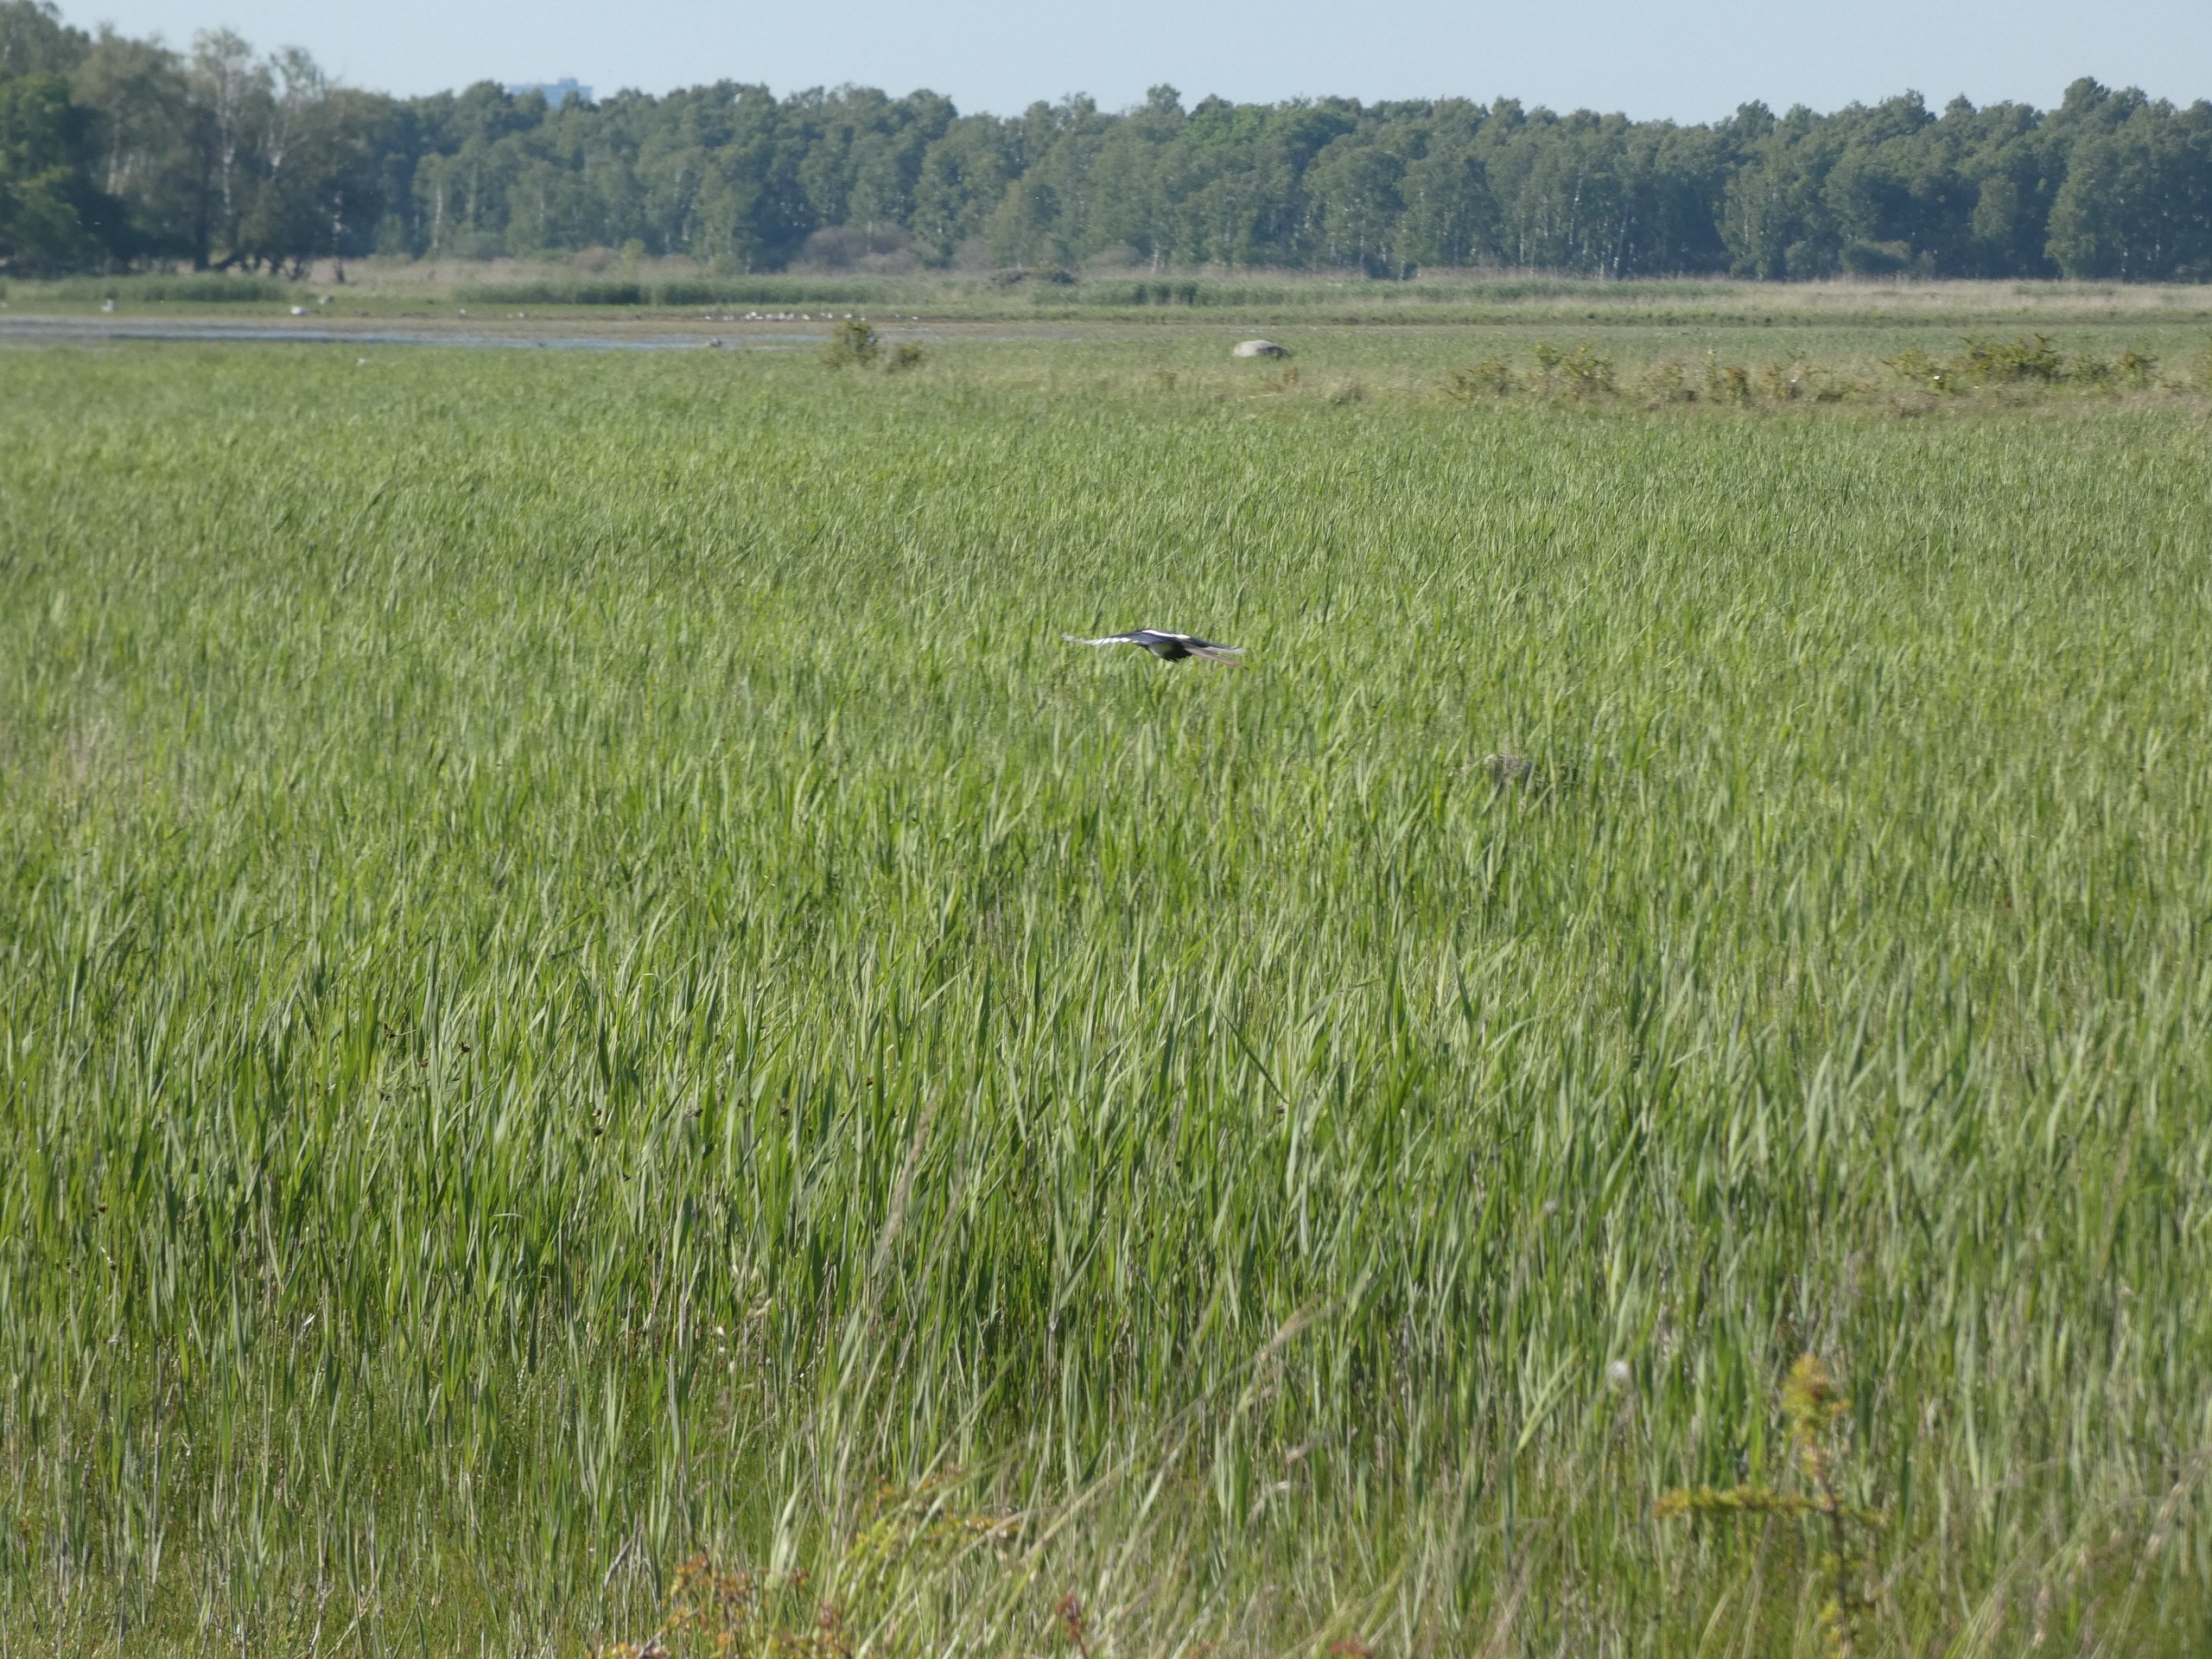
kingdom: Animalia
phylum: Chordata
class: Aves
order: Passeriformes
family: Corvidae
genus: Pica
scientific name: Pica pica
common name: Husskade
